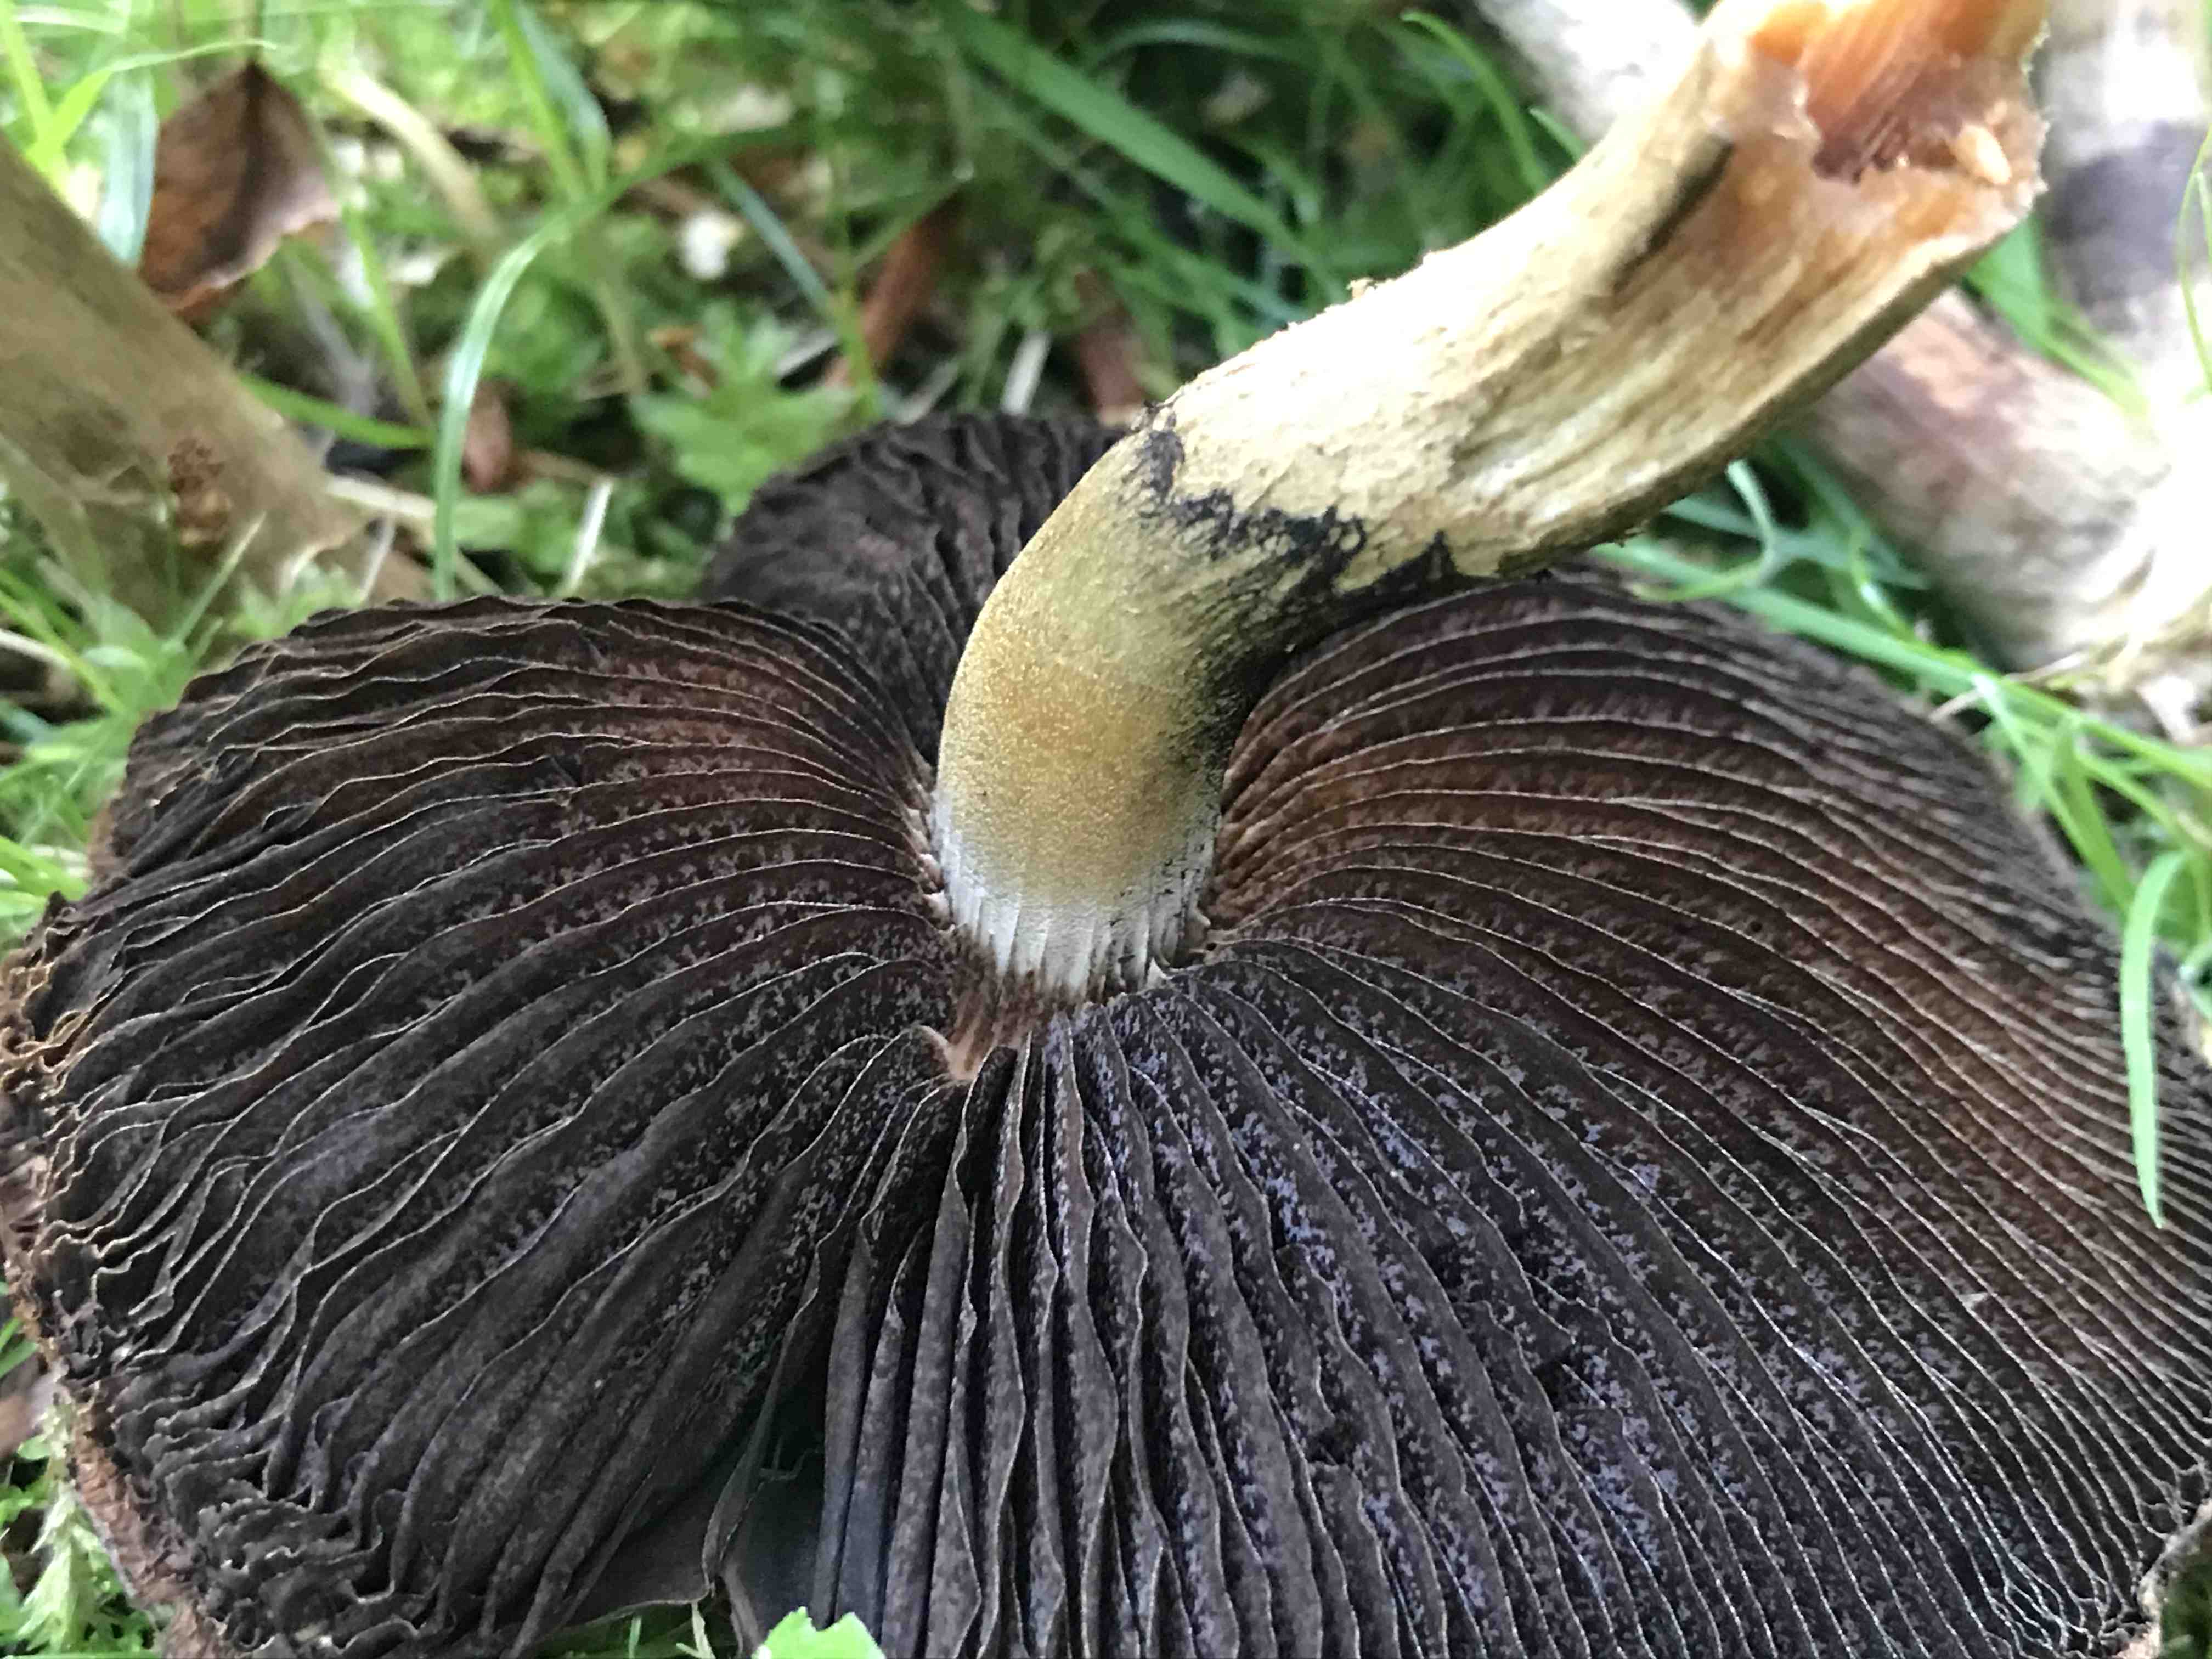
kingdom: Fungi
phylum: Basidiomycota
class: Agaricomycetes
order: Agaricales
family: Psathyrellaceae
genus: Lacrymaria
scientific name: Lacrymaria lacrymabunda
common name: grædende mørkhat
